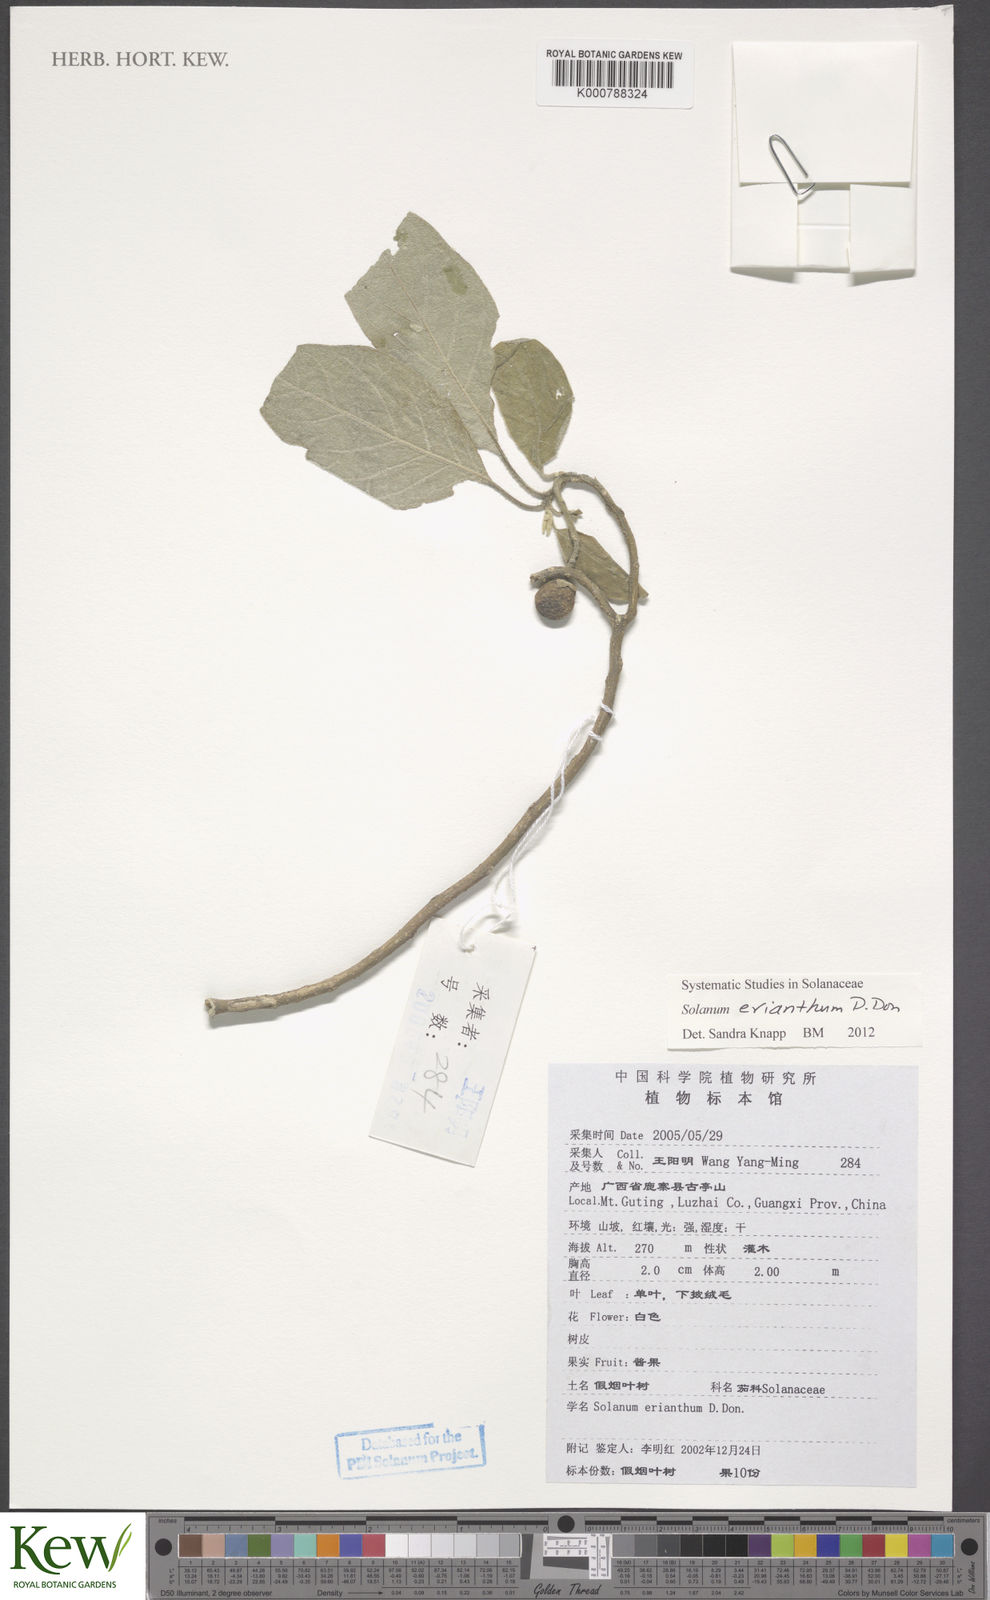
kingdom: Plantae
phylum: Tracheophyta
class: Magnoliopsida
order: Solanales
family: Solanaceae
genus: Solanum
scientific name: Solanum erianthum
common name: Tobacco-tree
